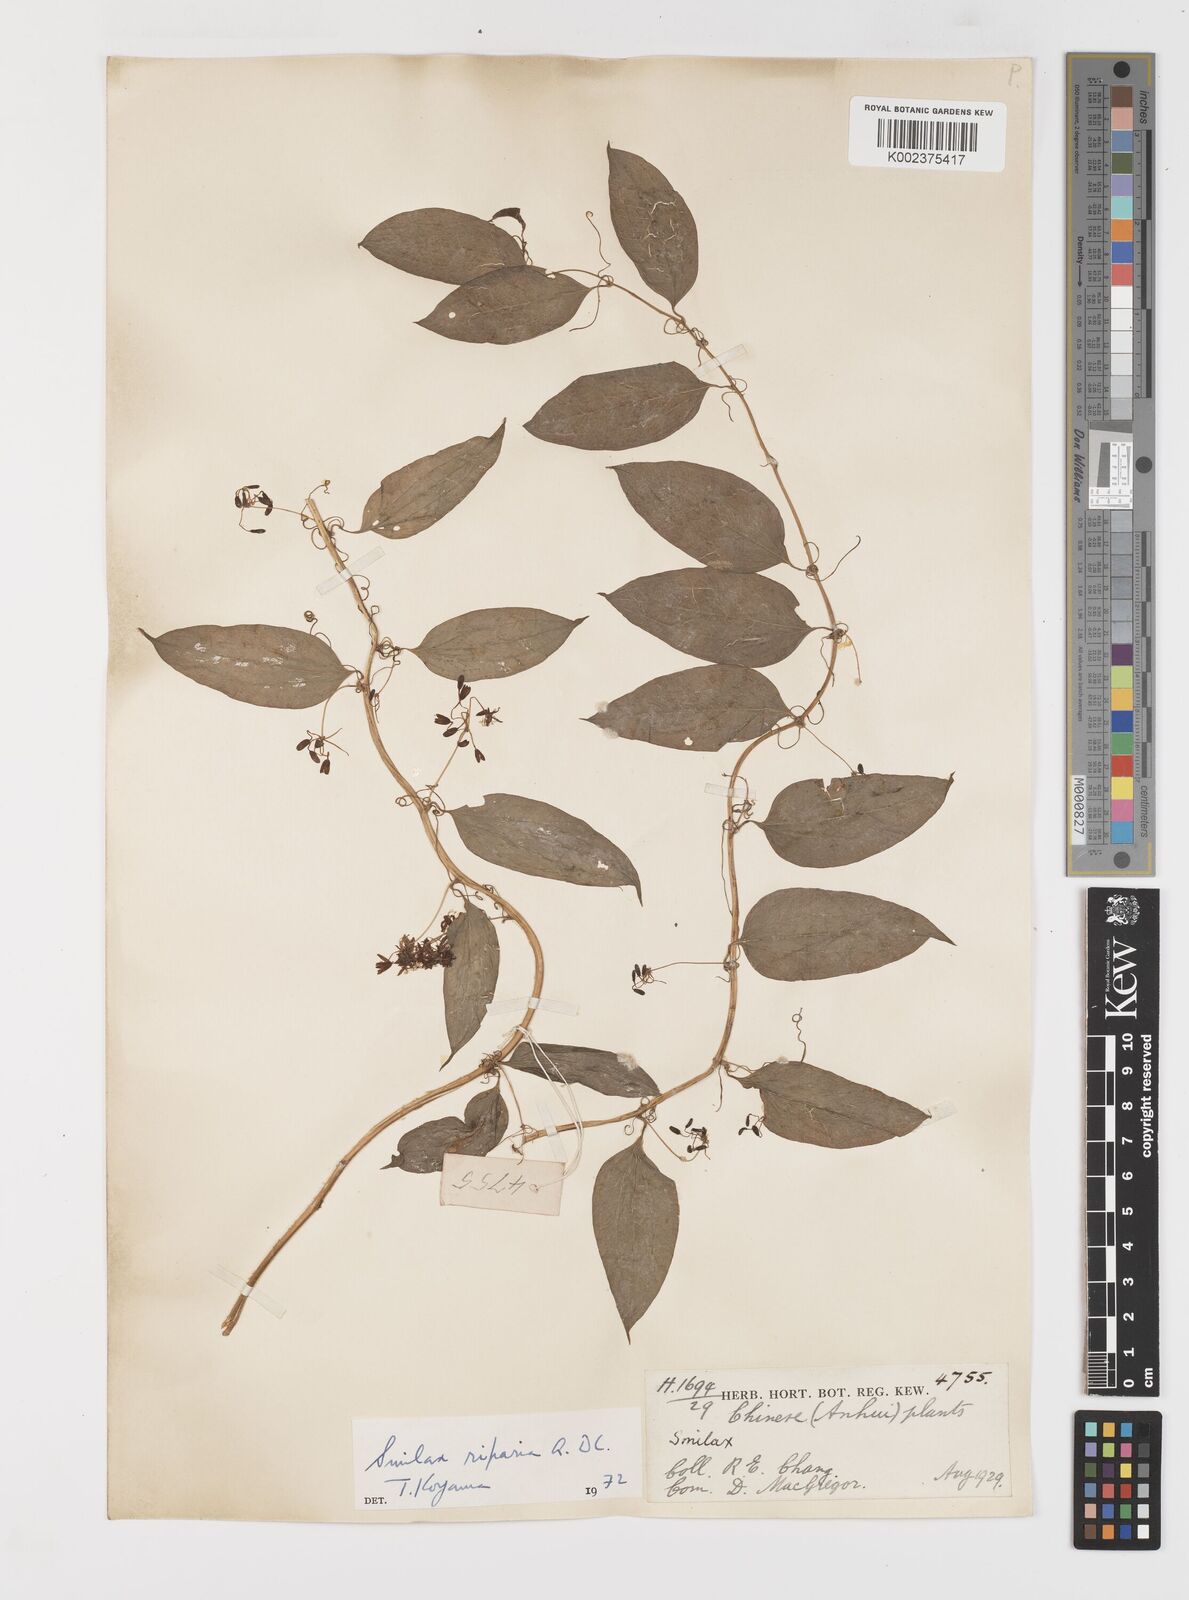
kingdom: Plantae
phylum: Tracheophyta
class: Liliopsida
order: Liliales
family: Smilacaceae
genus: Smilax
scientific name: Smilax riparia
